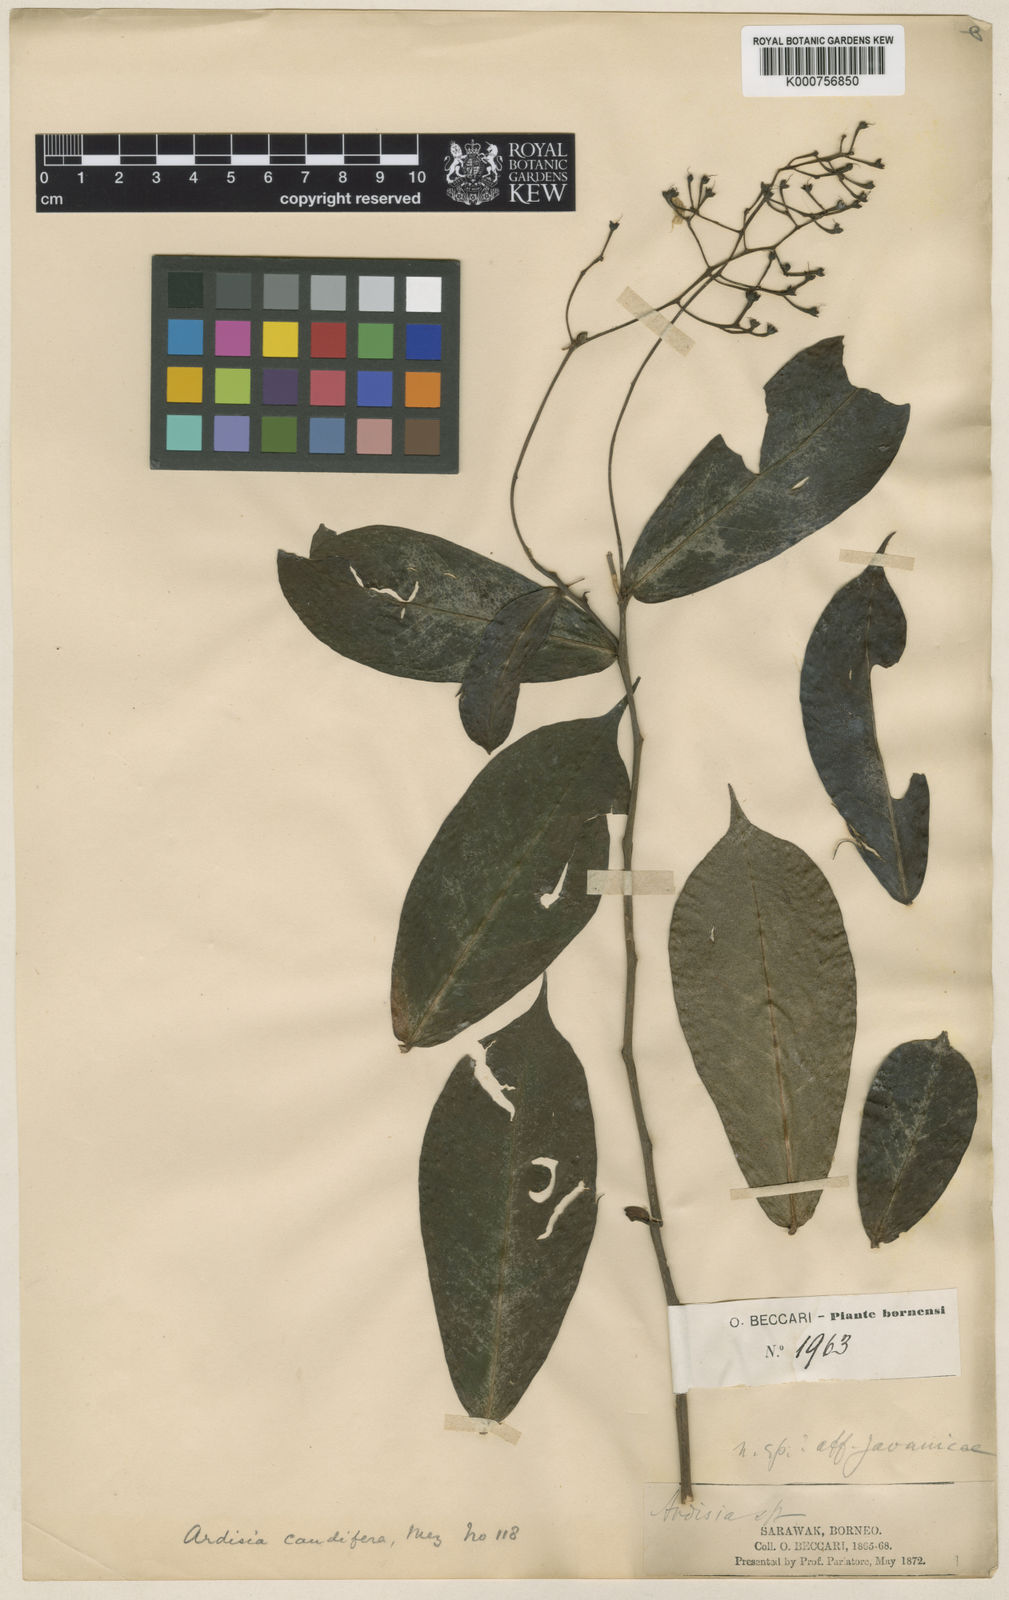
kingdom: Plantae
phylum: Tracheophyta
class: Magnoliopsida
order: Ericales
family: Primulaceae
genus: Ardisia
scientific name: Ardisia caudifera
